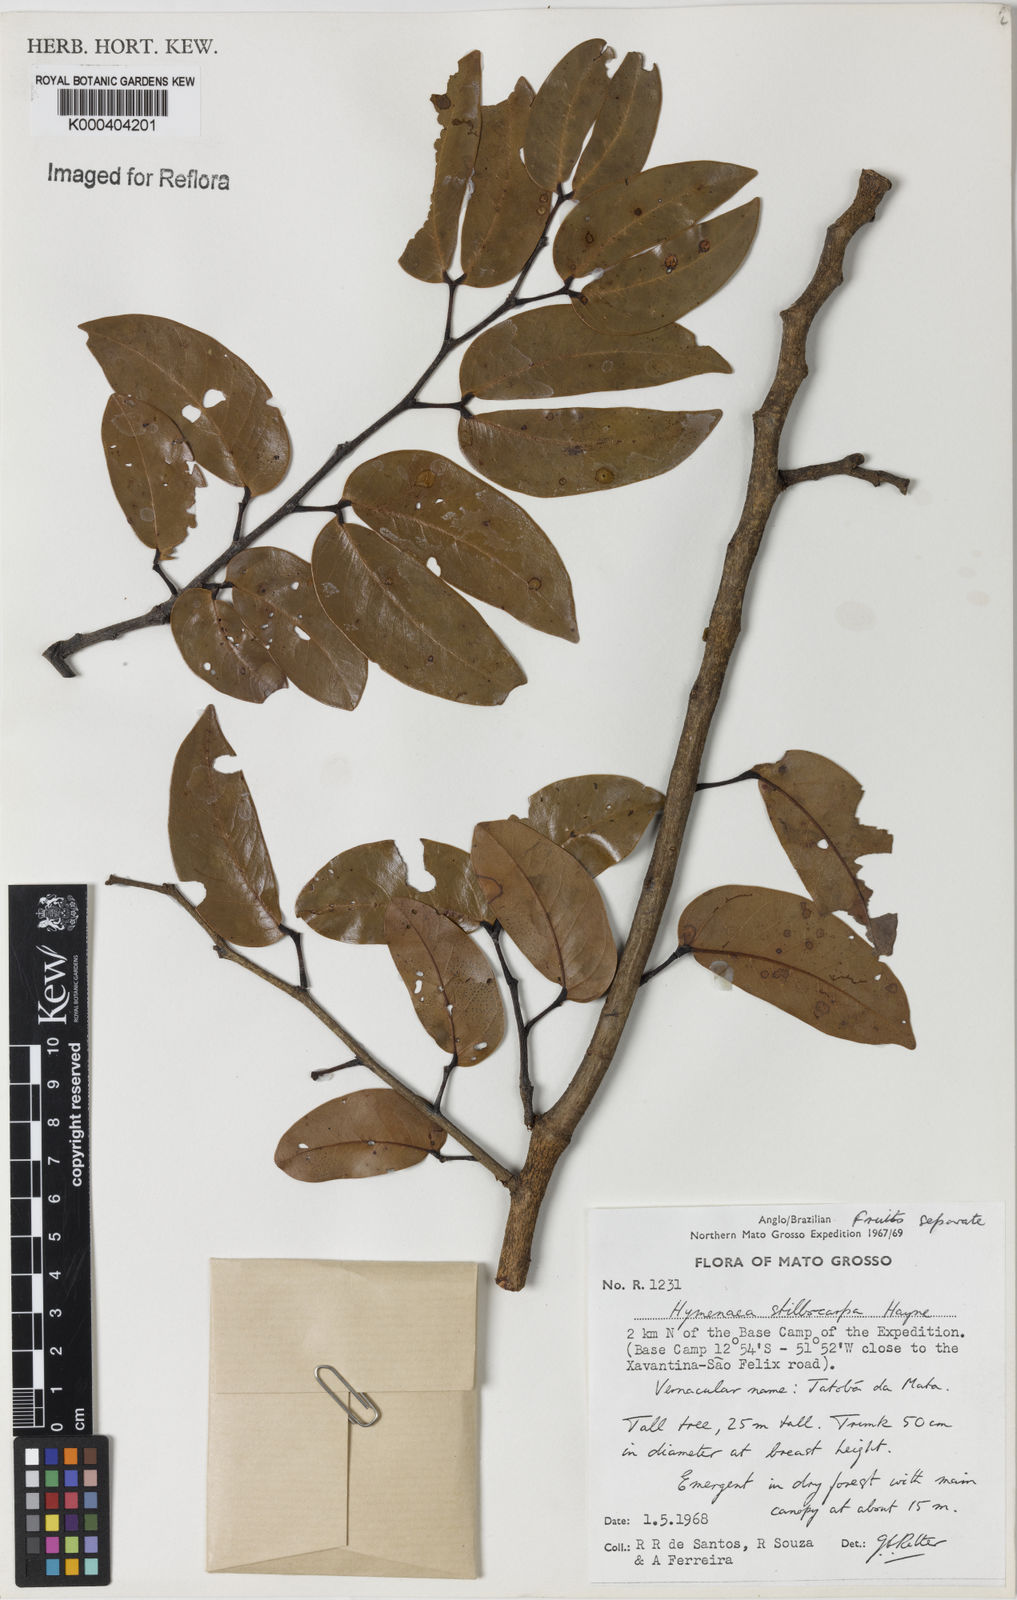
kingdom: Plantae
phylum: Tracheophyta
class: Magnoliopsida
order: Fabales
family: Fabaceae
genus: Hymenaea
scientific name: Hymenaea courbaril
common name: Brazilian copal
